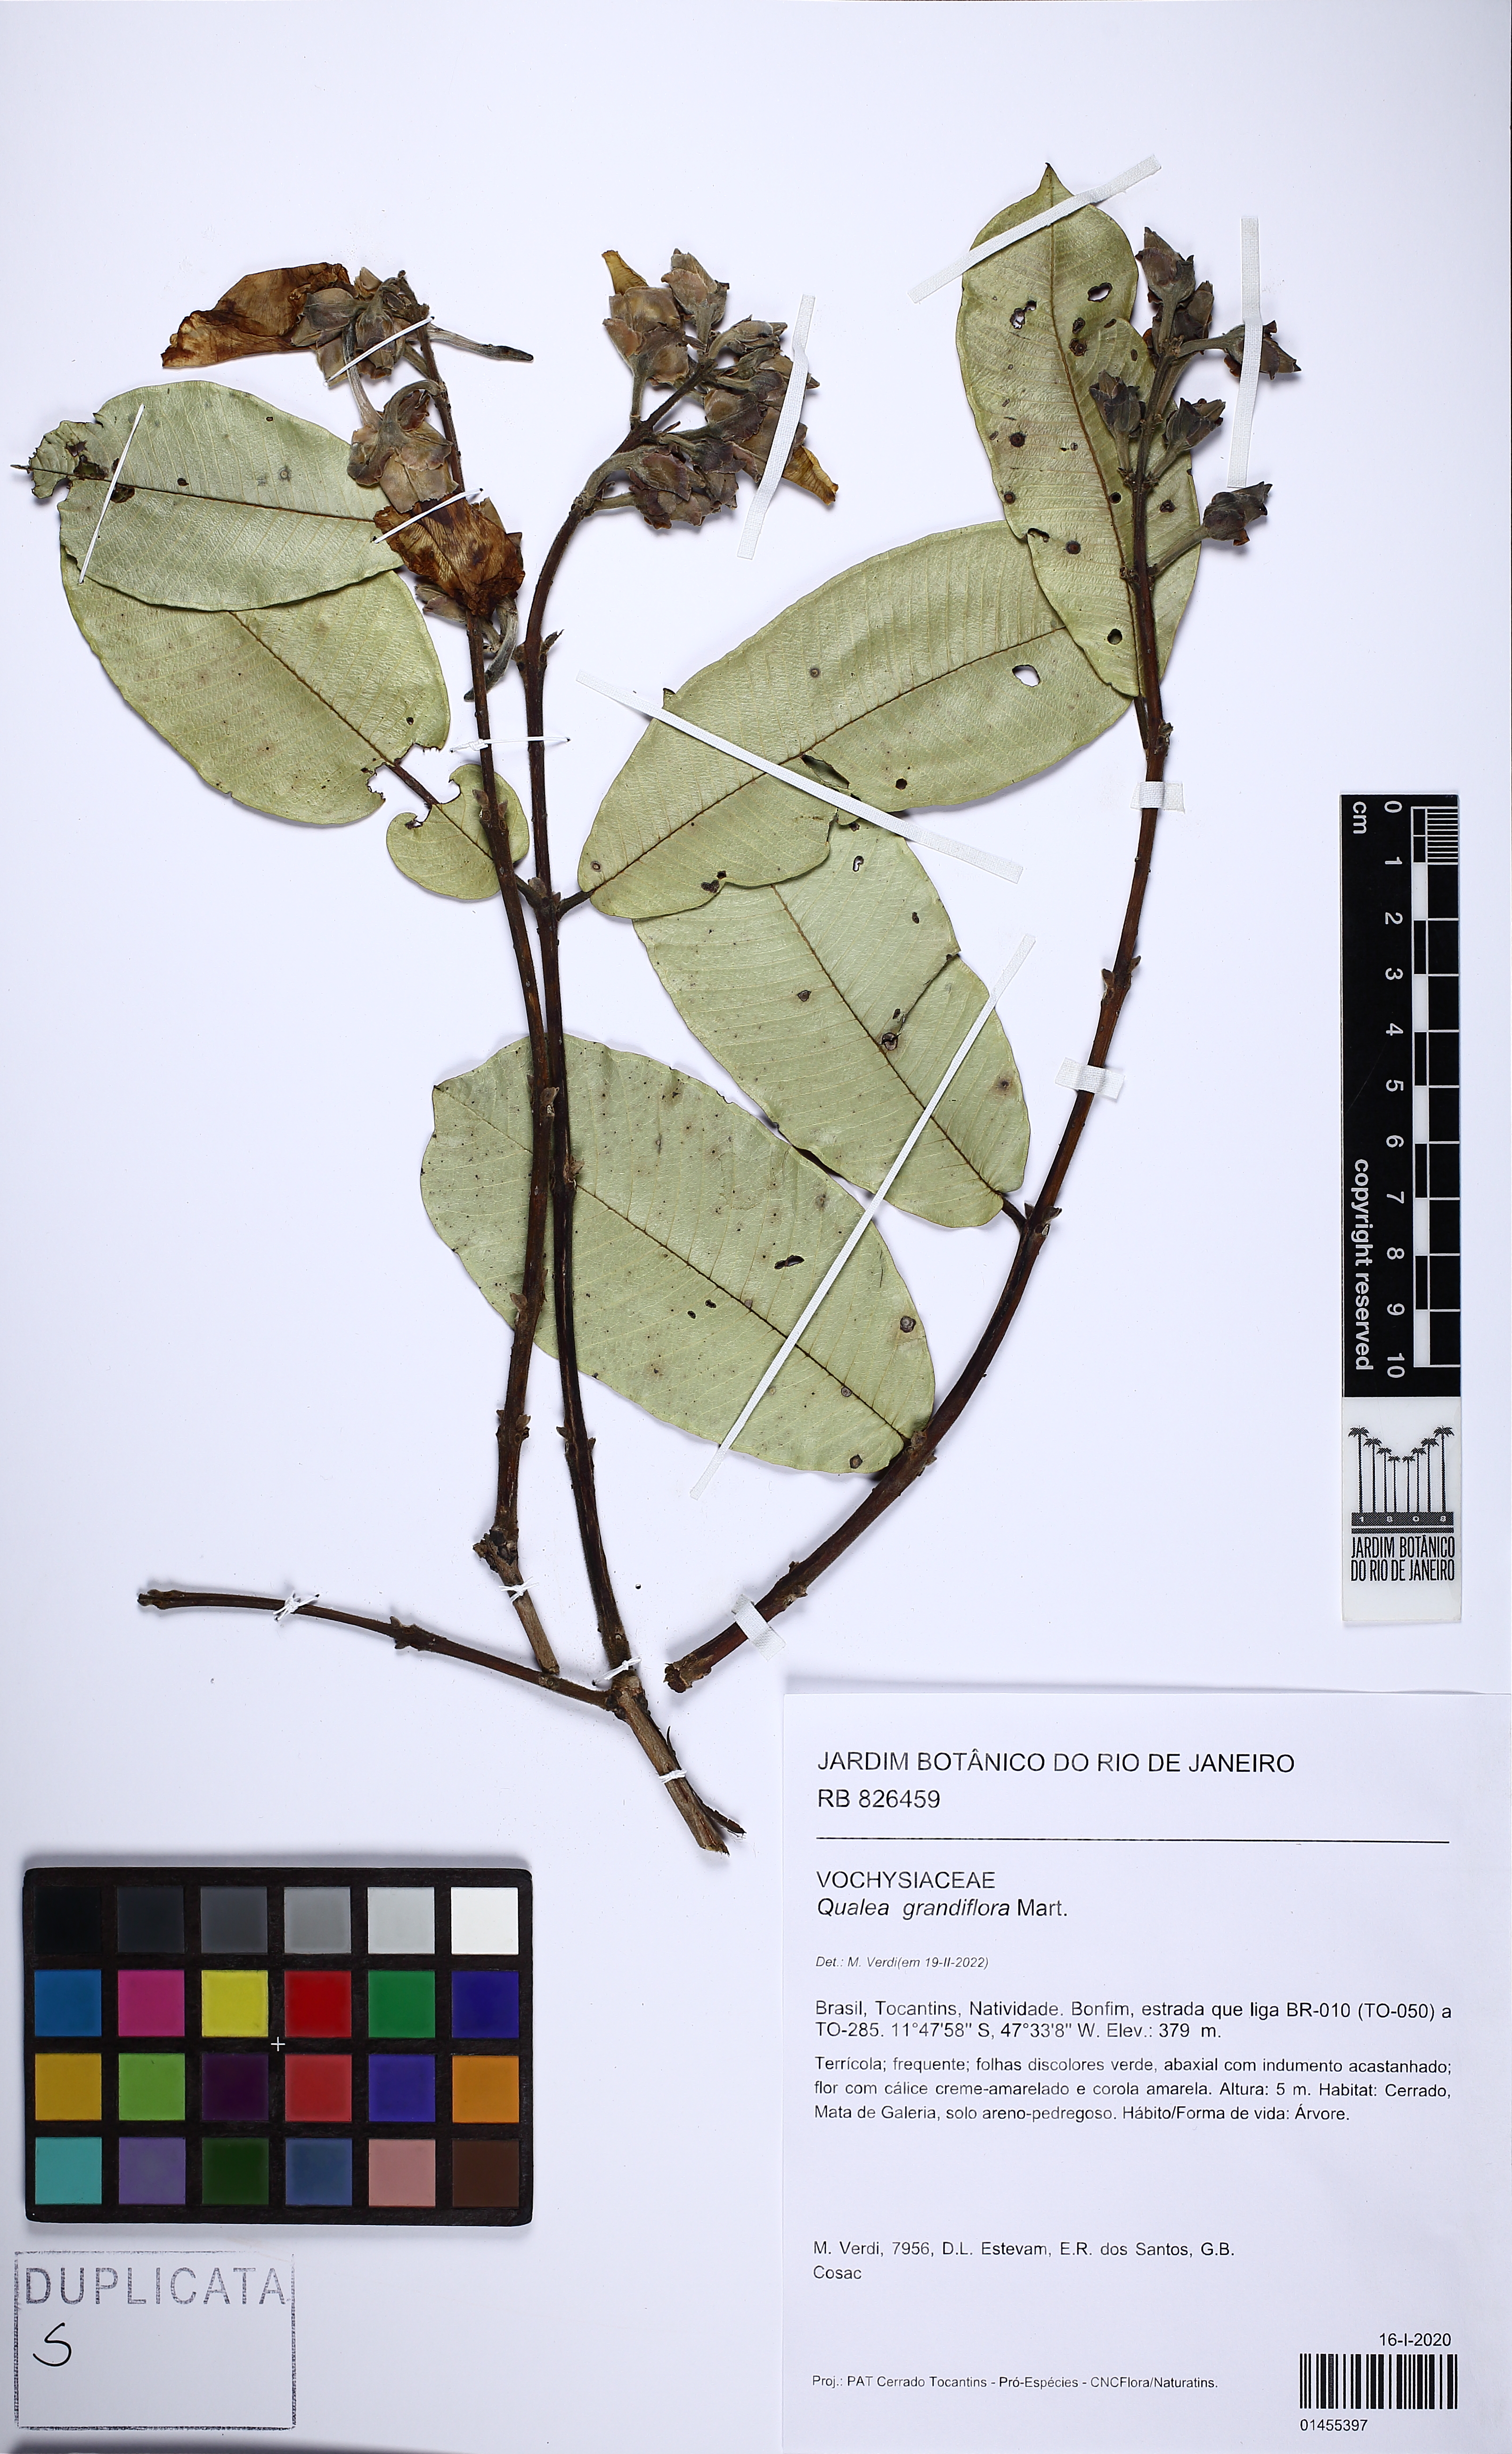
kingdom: Plantae
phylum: Tracheophyta
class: Magnoliopsida
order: Myrtales
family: Vochysiaceae
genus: Qualea
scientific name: Qualea grandiflora
